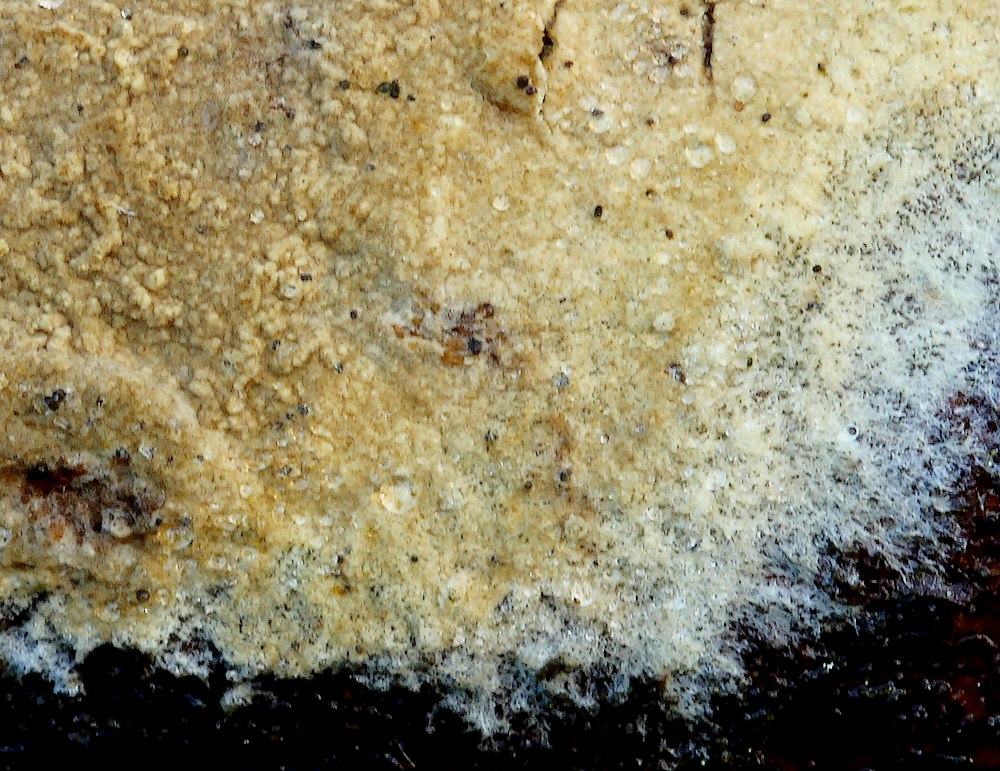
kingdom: Fungi
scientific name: Fungi
